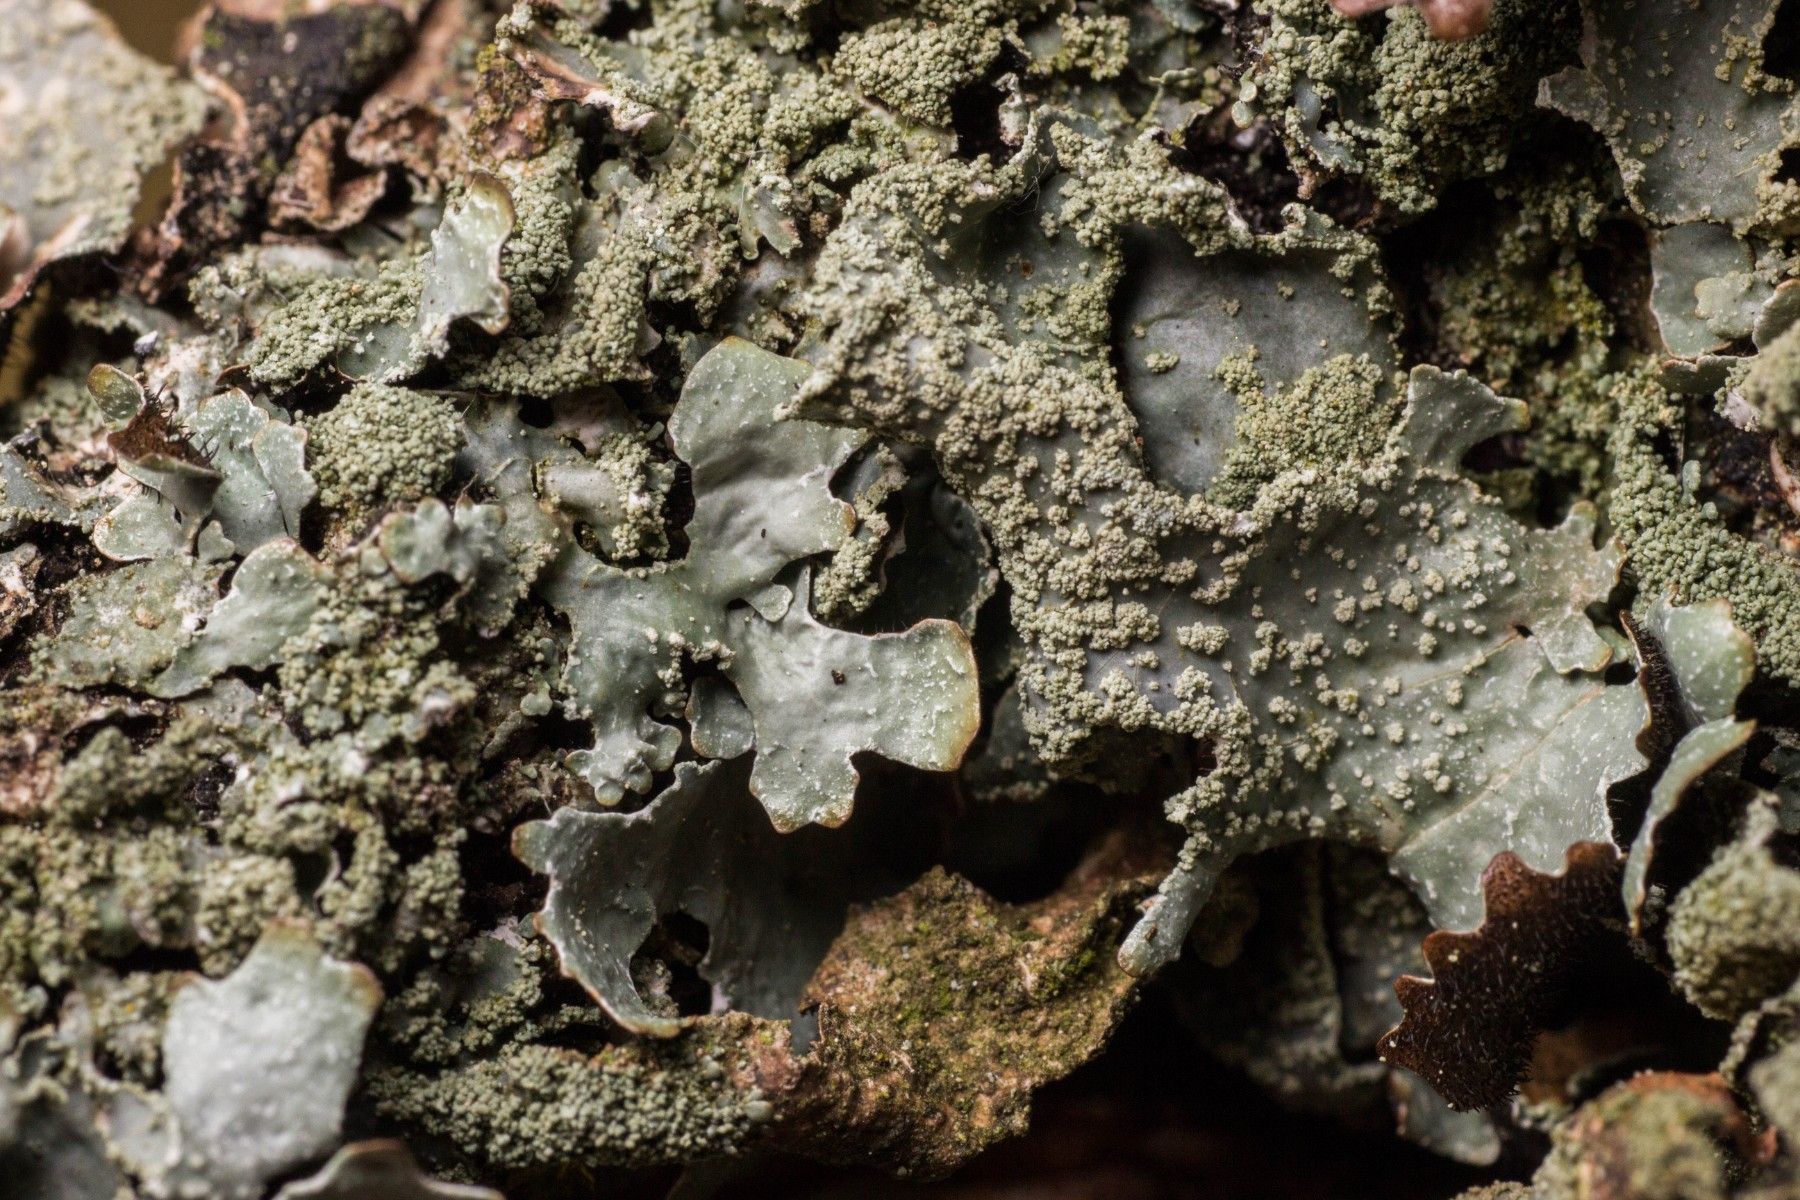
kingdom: Fungi
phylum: Ascomycota
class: Lecanoromycetes
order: Lecanorales
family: Parmeliaceae
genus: Parmelia
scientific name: Parmelia submontana
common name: langlobet skållav
